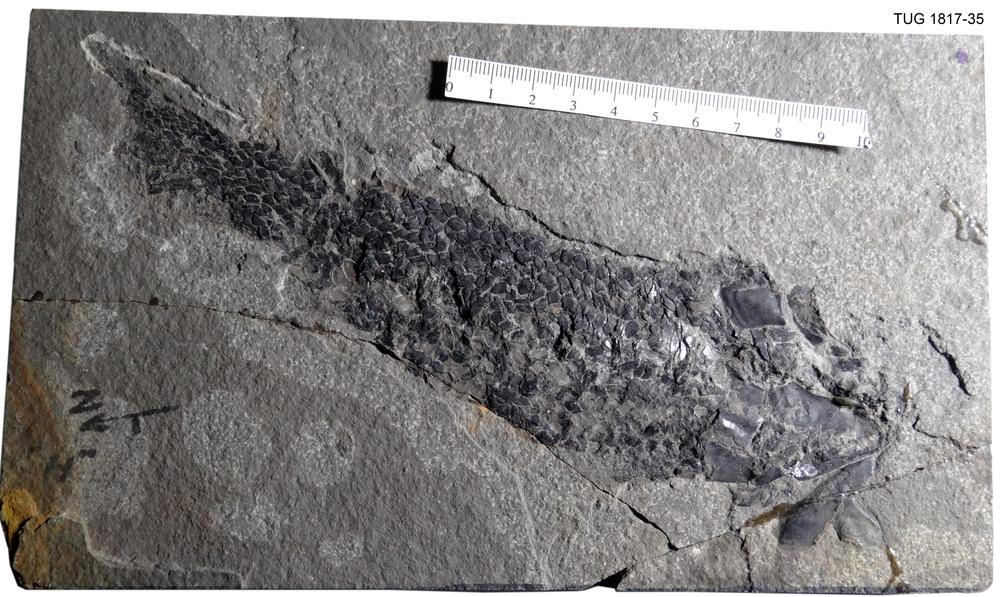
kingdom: Animalia
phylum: Chordata
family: Osteolepididae
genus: Osteolepis
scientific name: Osteolepis macrolepidotus
